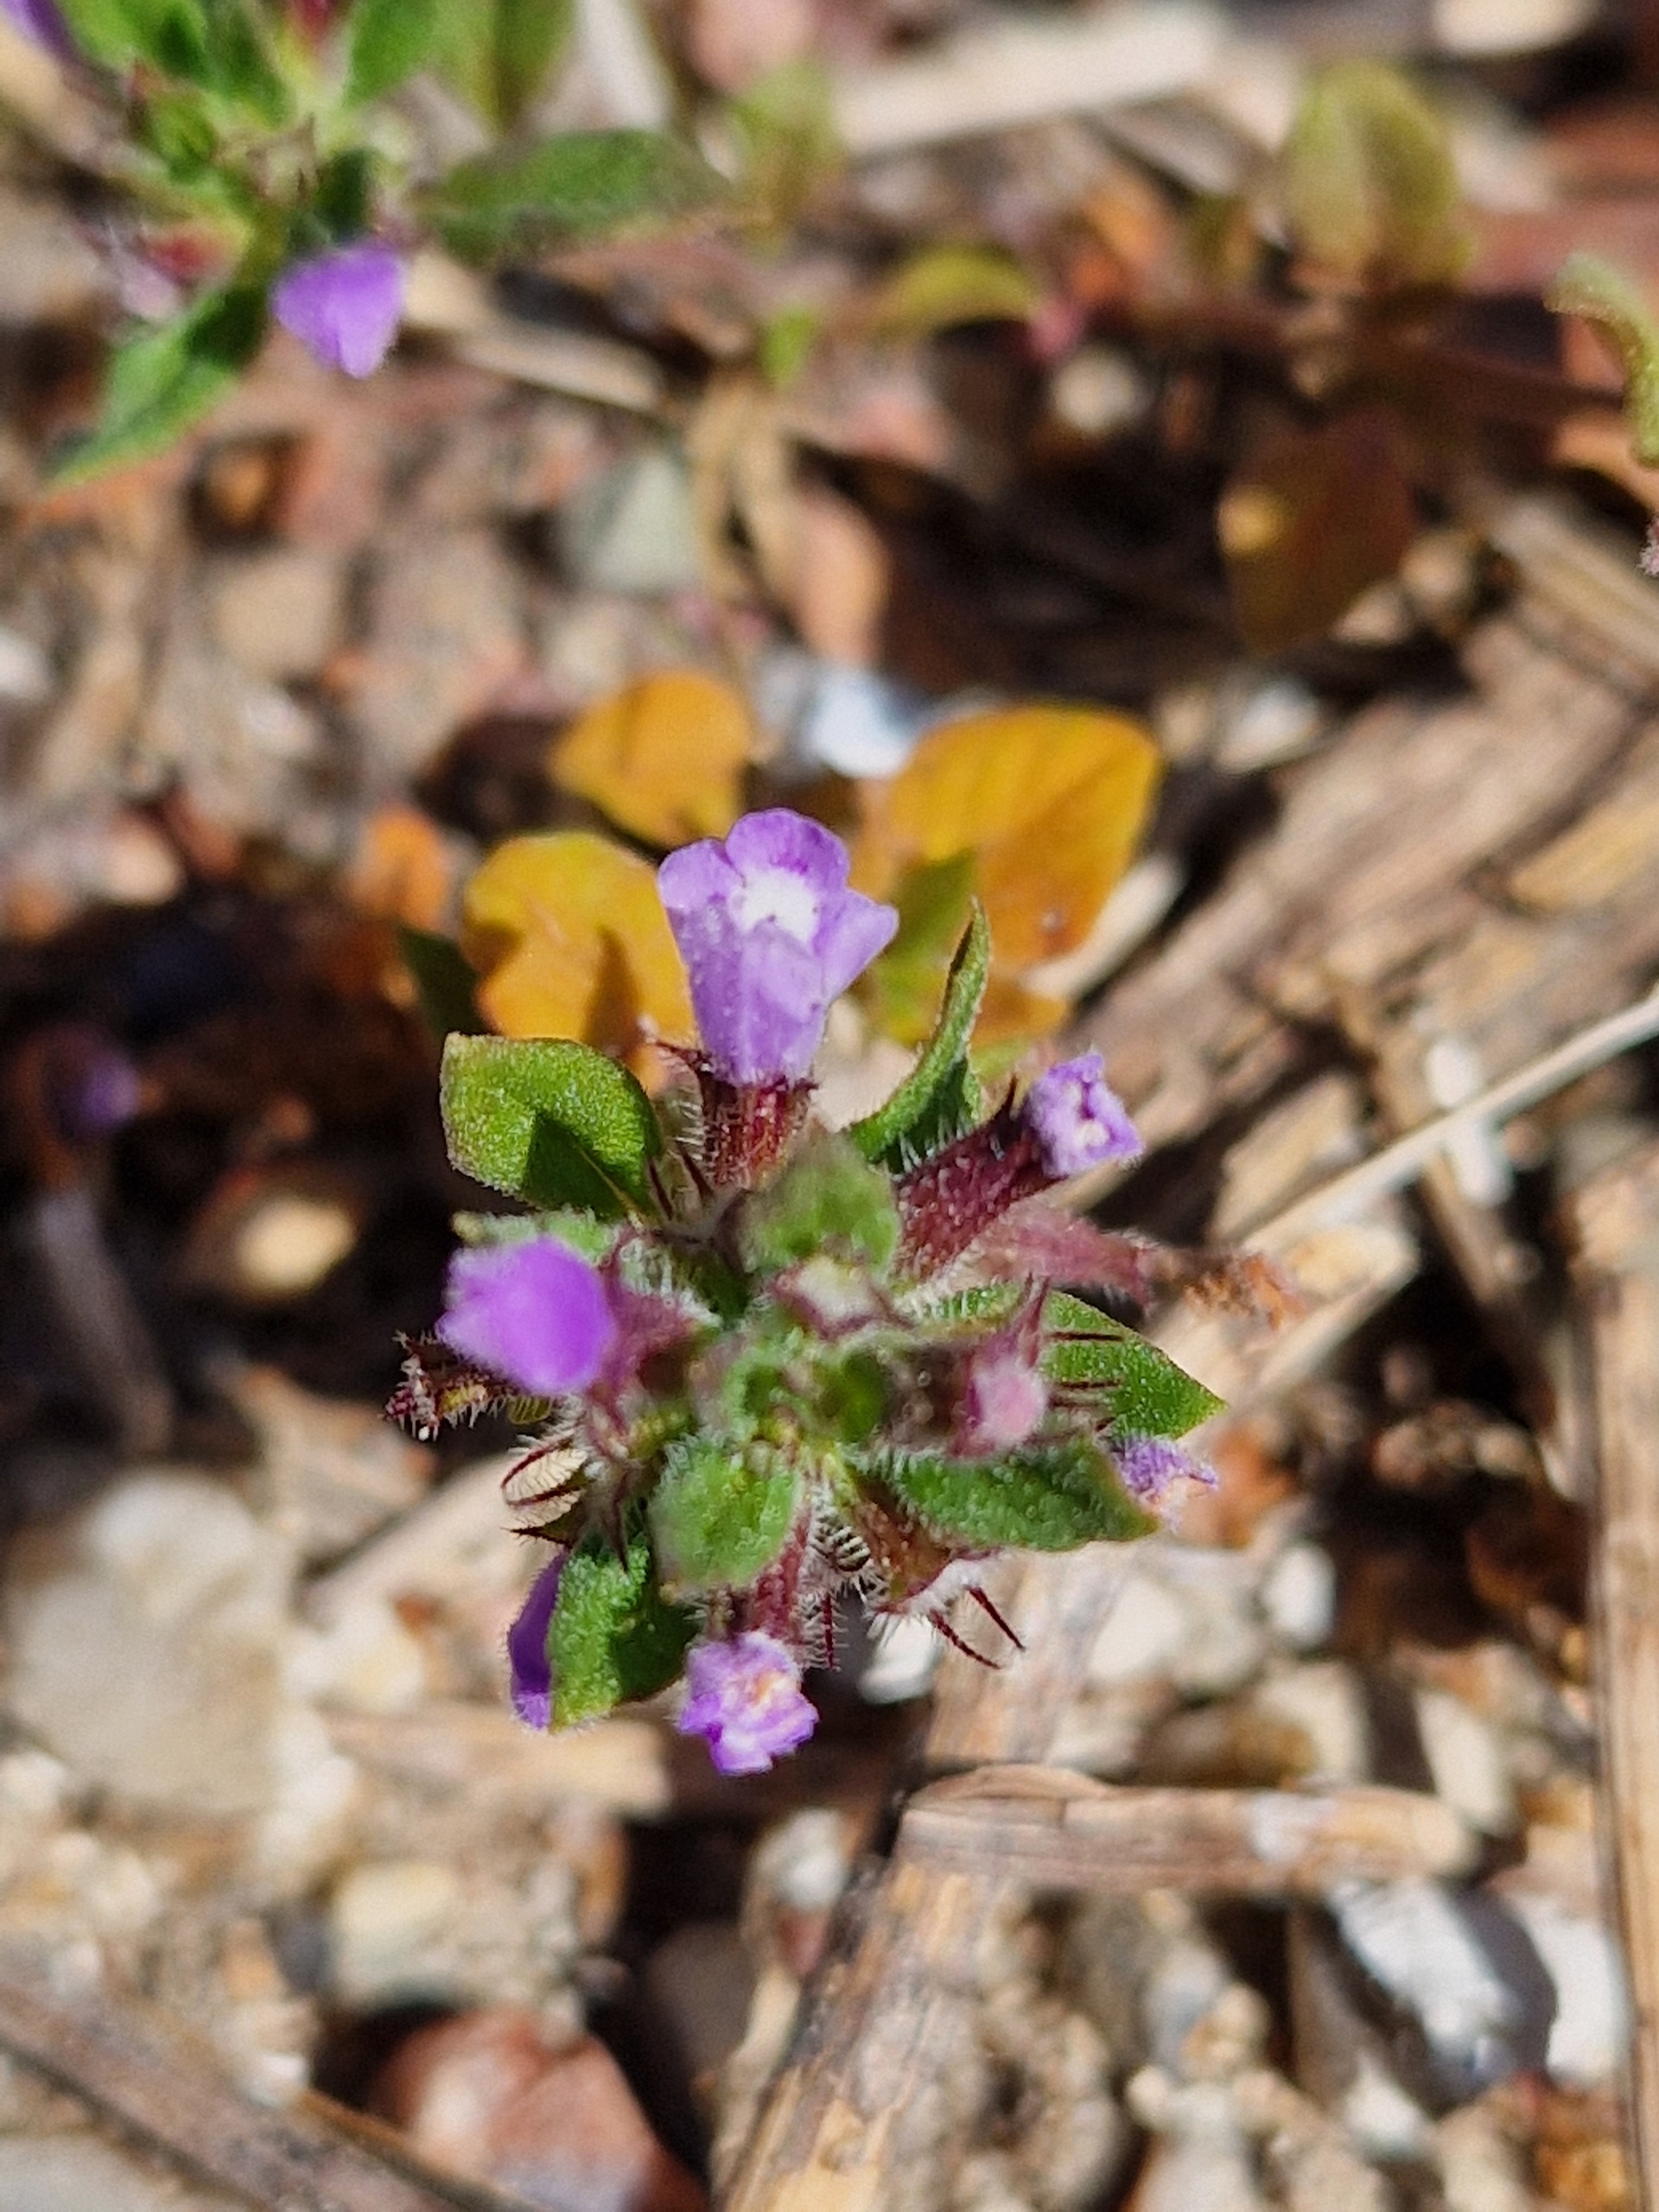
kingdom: Plantae
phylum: Tracheophyta
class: Magnoliopsida
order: Lamiales
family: Lamiaceae
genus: Clinopodium
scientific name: Clinopodium acinos
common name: Voldtimian
